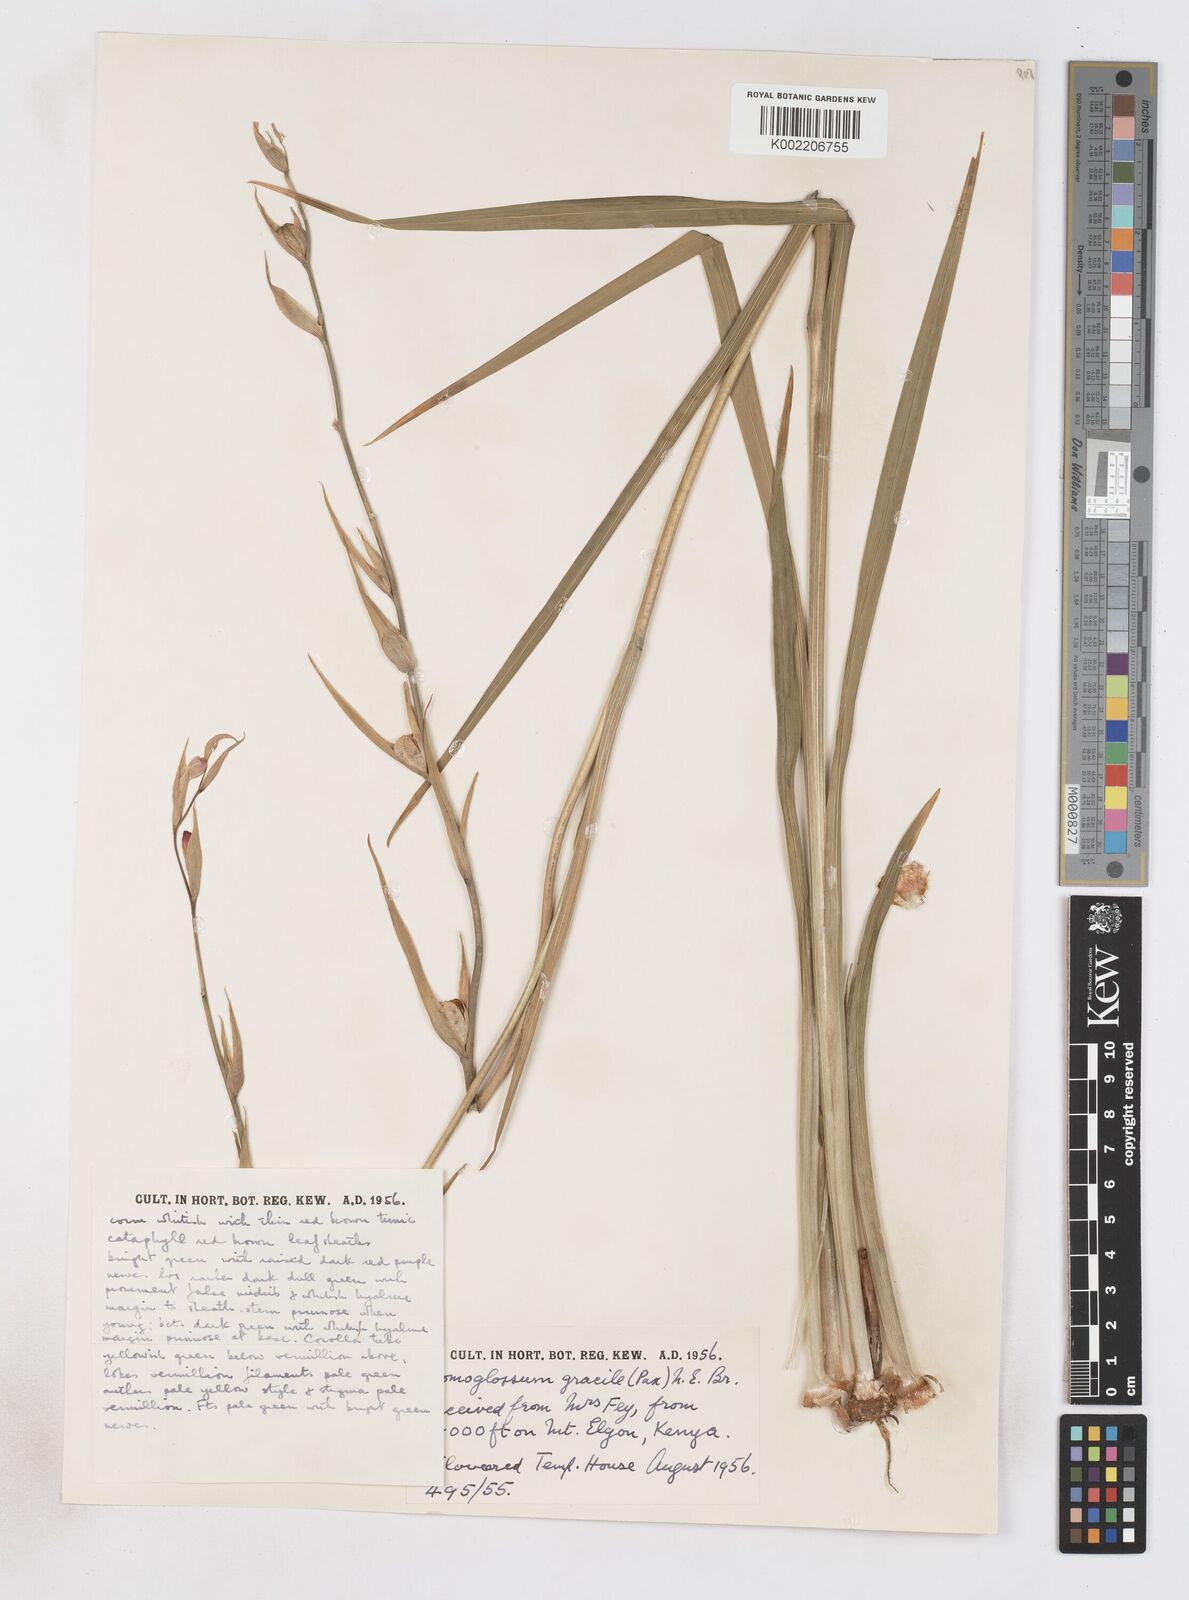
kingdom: Plantae
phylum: Tracheophyta
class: Liliopsida
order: Asparagales
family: Iridaceae
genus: Gladiolus
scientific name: Gladiolus watsonioides
